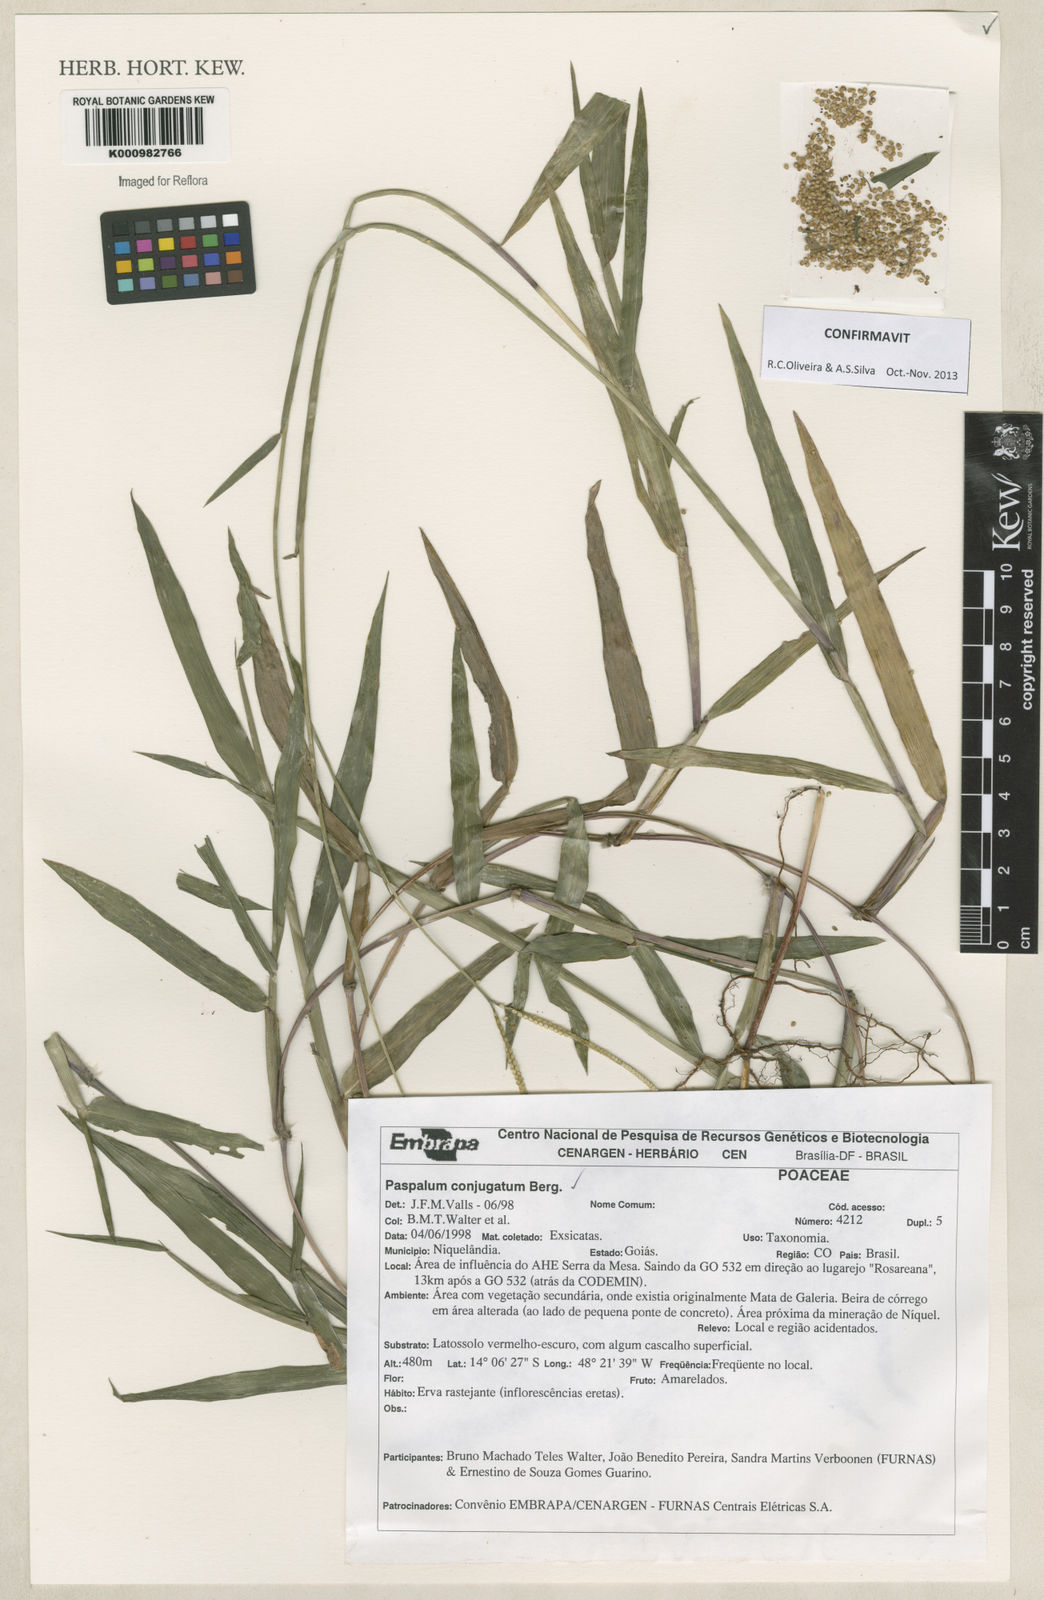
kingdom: Plantae
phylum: Tracheophyta
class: Liliopsida
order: Poales
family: Poaceae
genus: Paspalum
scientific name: Paspalum conjugatum
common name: Hilograss
